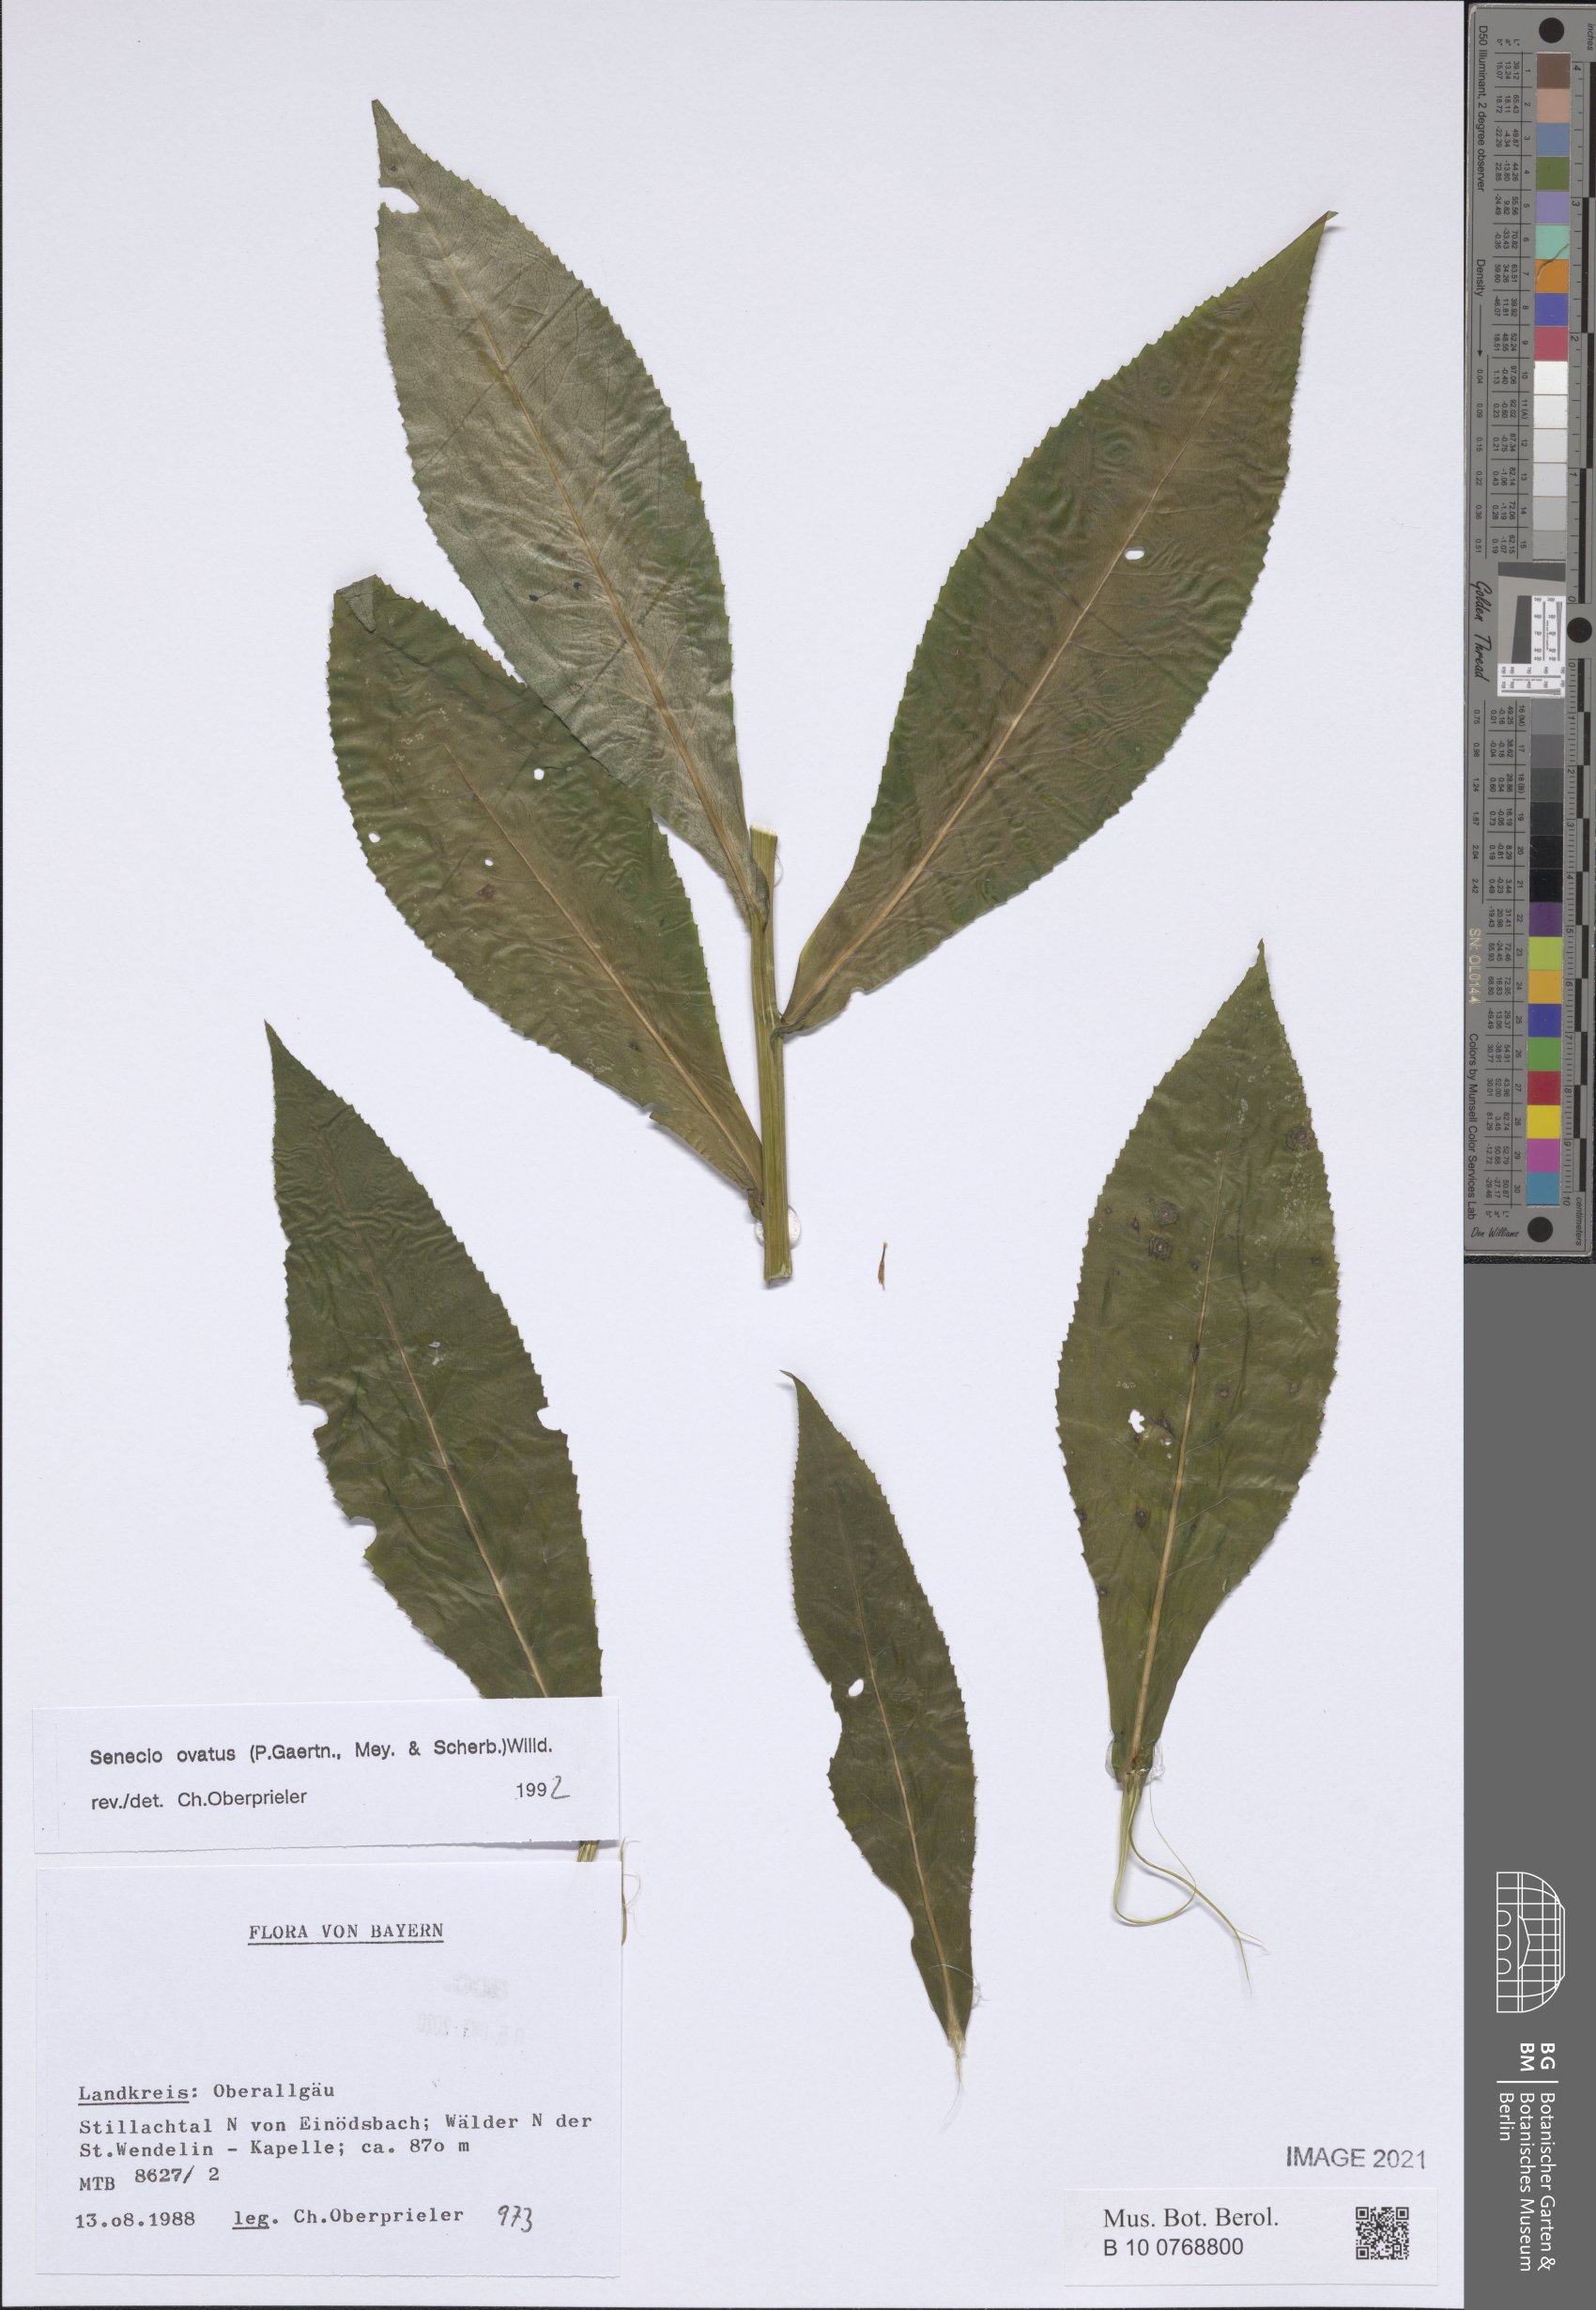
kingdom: Plantae
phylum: Tracheophyta
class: Magnoliopsida
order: Asterales
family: Asteraceae
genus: Senecio
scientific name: Senecio ovatus
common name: Wood ragwort
